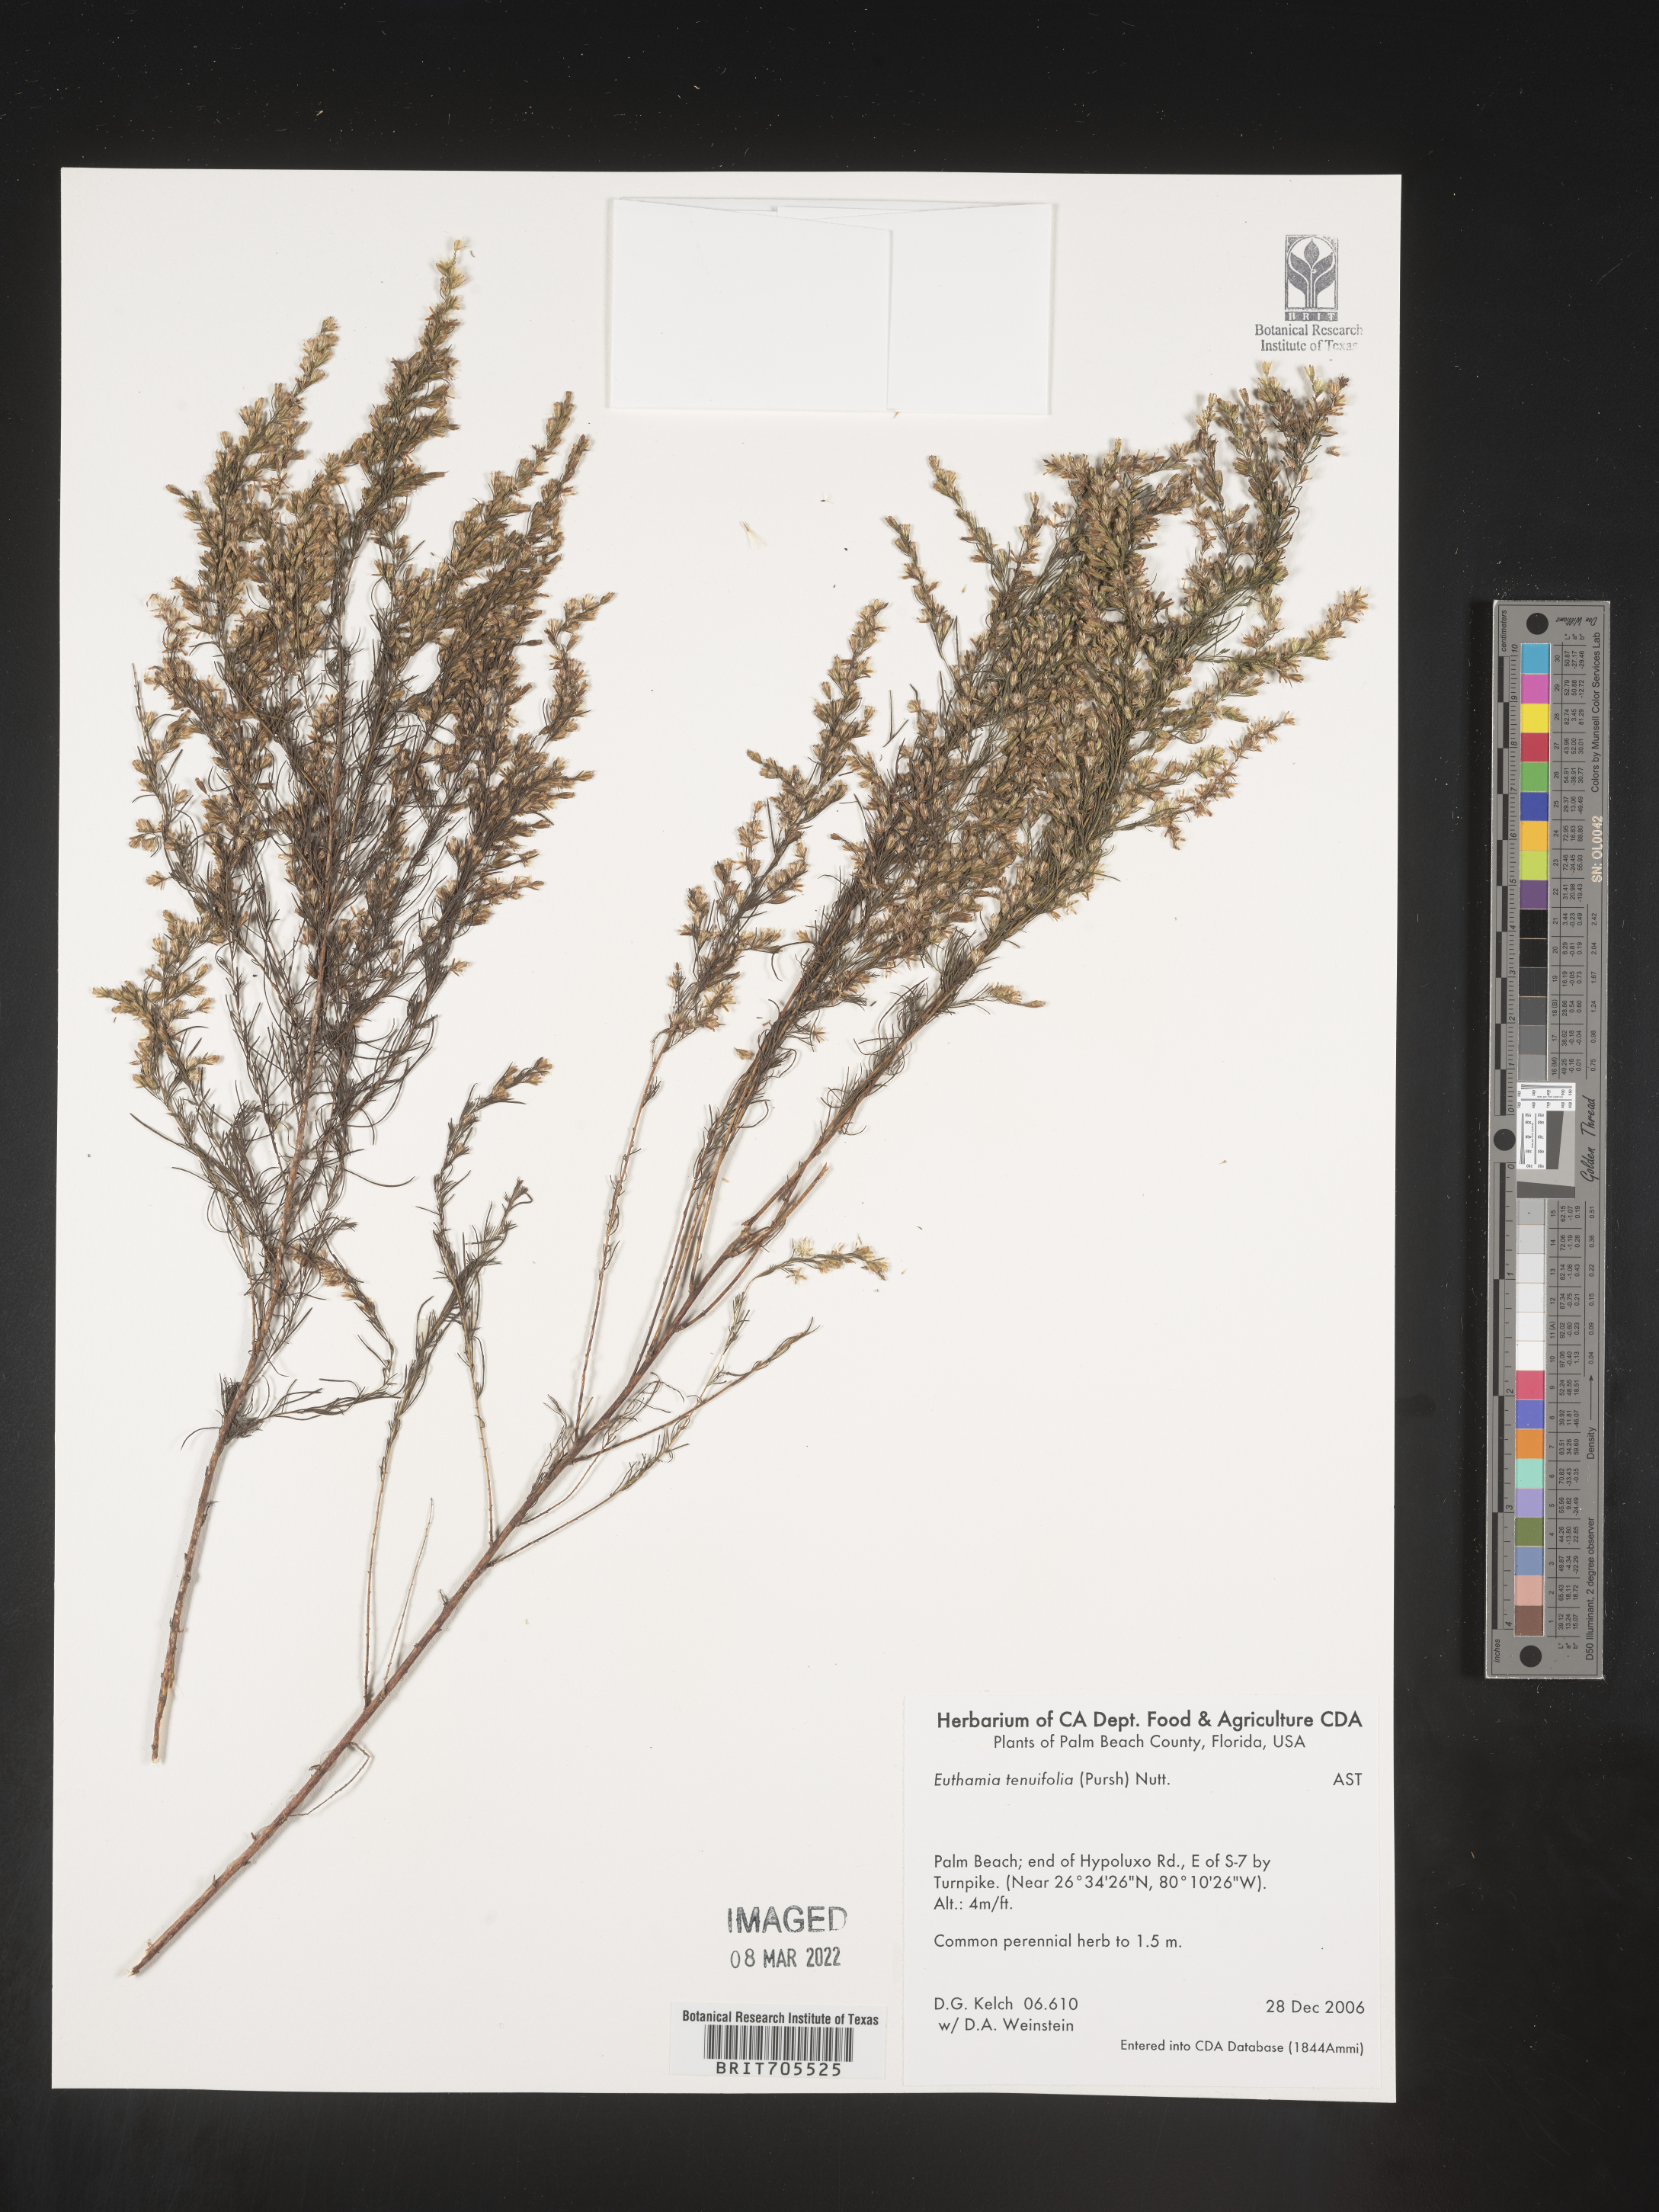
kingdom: Plantae
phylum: Tracheophyta
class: Magnoliopsida
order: Asterales
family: Asteraceae
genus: Euthamia
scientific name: Euthamia caroliniana
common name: Coastal plain goldentop
